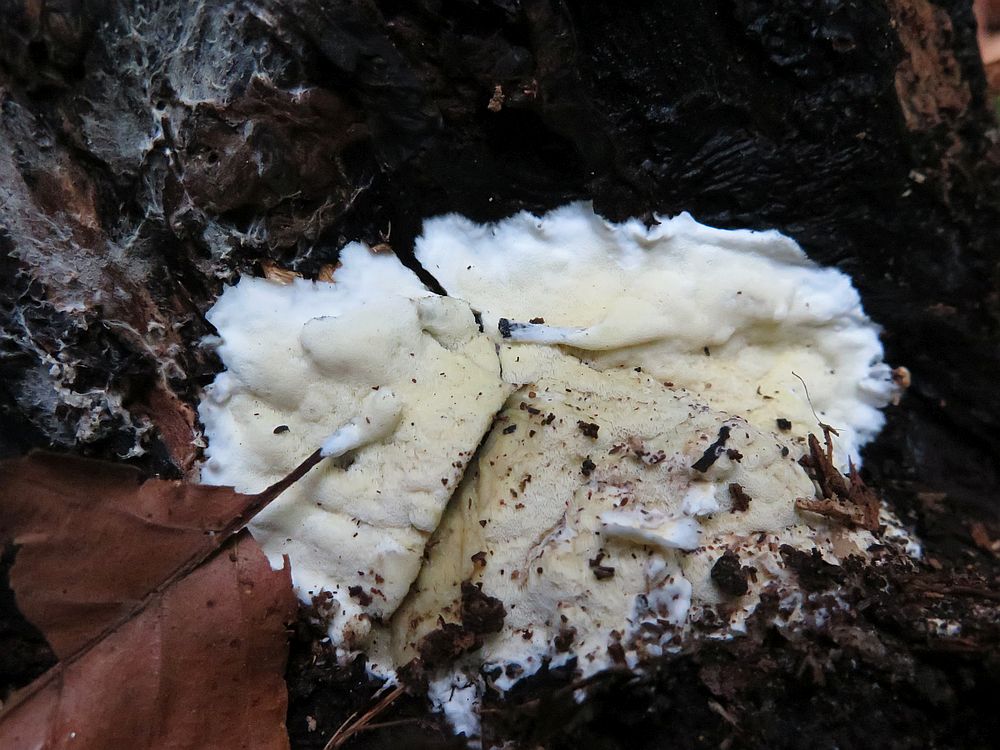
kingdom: Fungi
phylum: Basidiomycota
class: Agaricomycetes
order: Polyporales
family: Irpicaceae
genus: Gloeoporus
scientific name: Gloeoporus pannocinctus
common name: grøngul foldporesvamp
